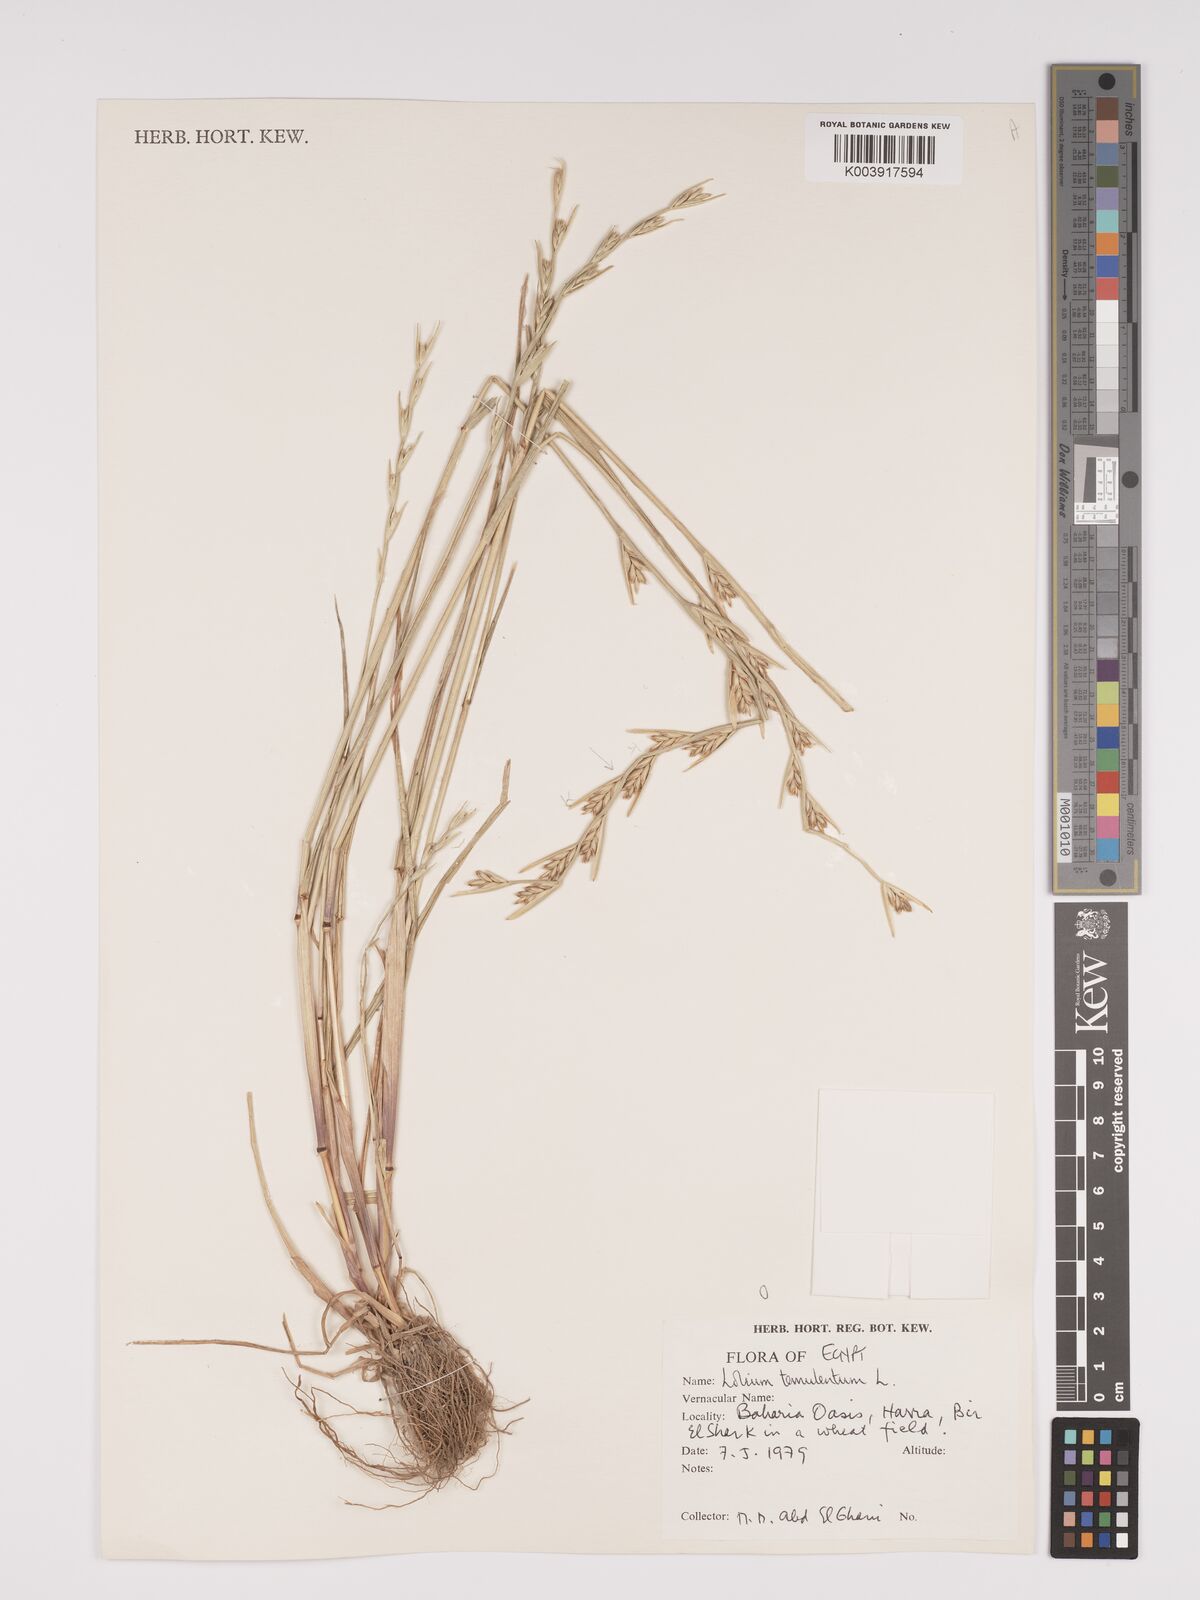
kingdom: Plantae
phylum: Tracheophyta
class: Liliopsida
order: Poales
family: Poaceae
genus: Lolium
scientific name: Lolium temulentum
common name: Darnel
